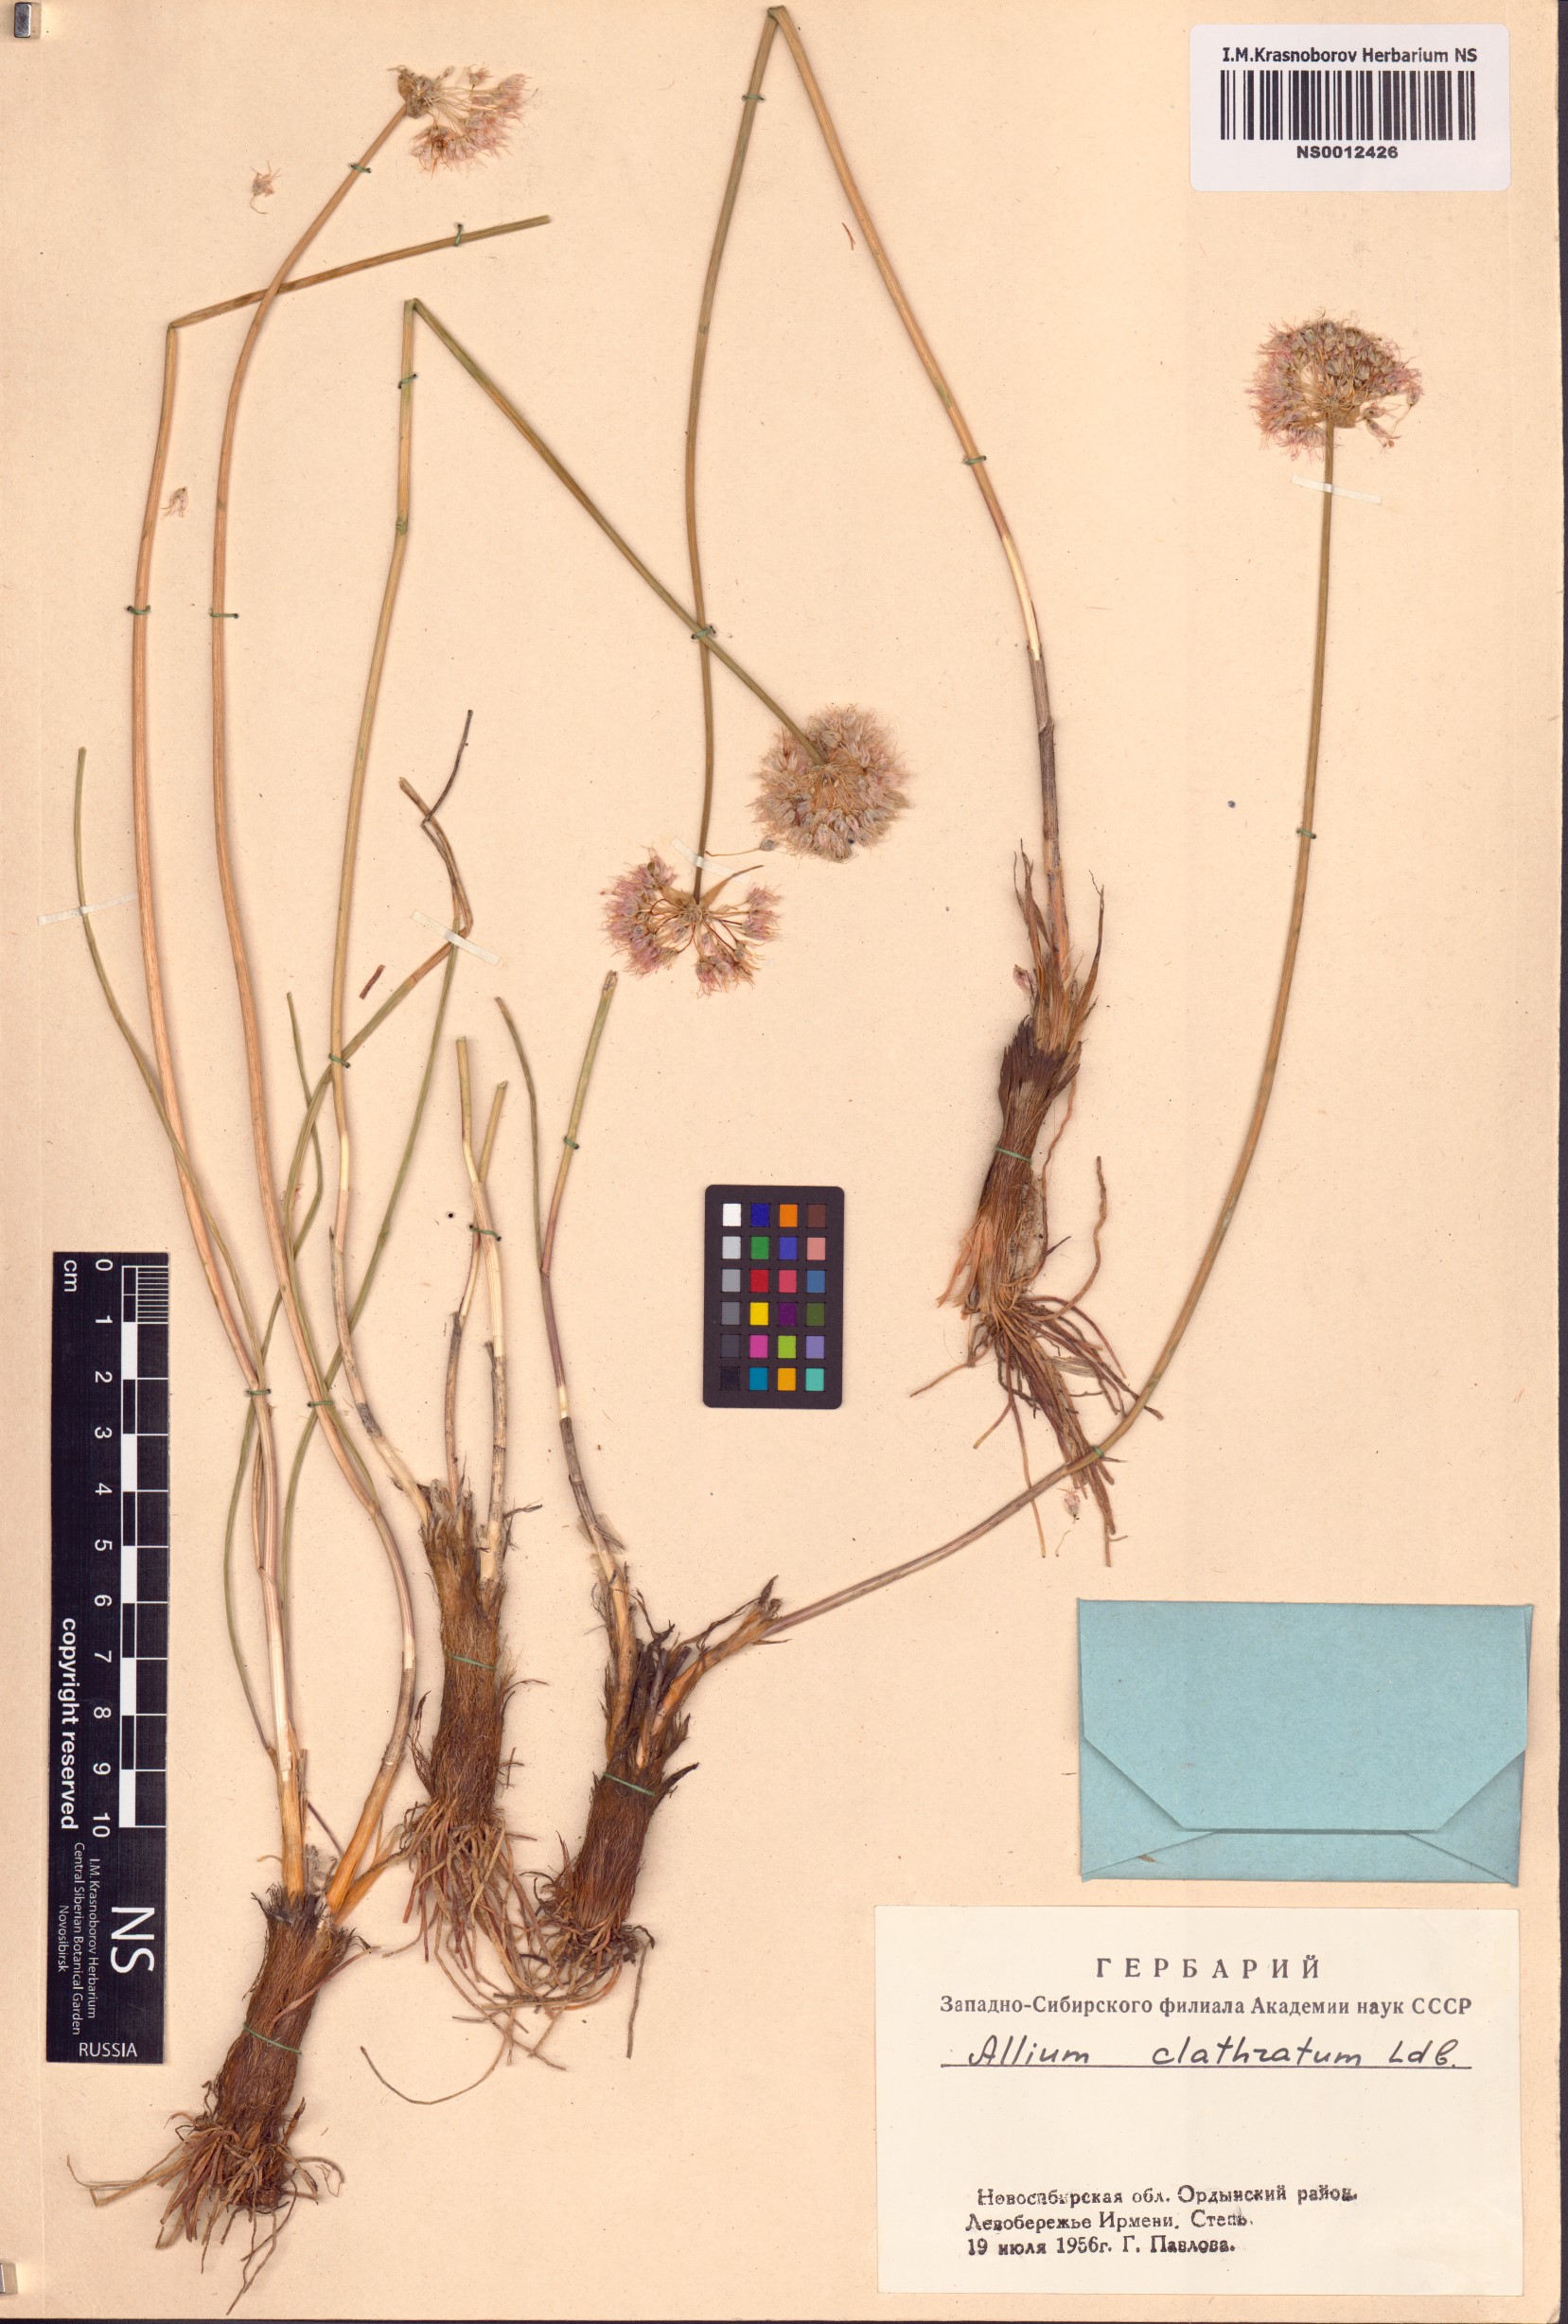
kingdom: Plantae
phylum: Tracheophyta
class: Liliopsida
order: Asparagales
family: Amaryllidaceae
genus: Allium
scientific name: Allium clathratum
